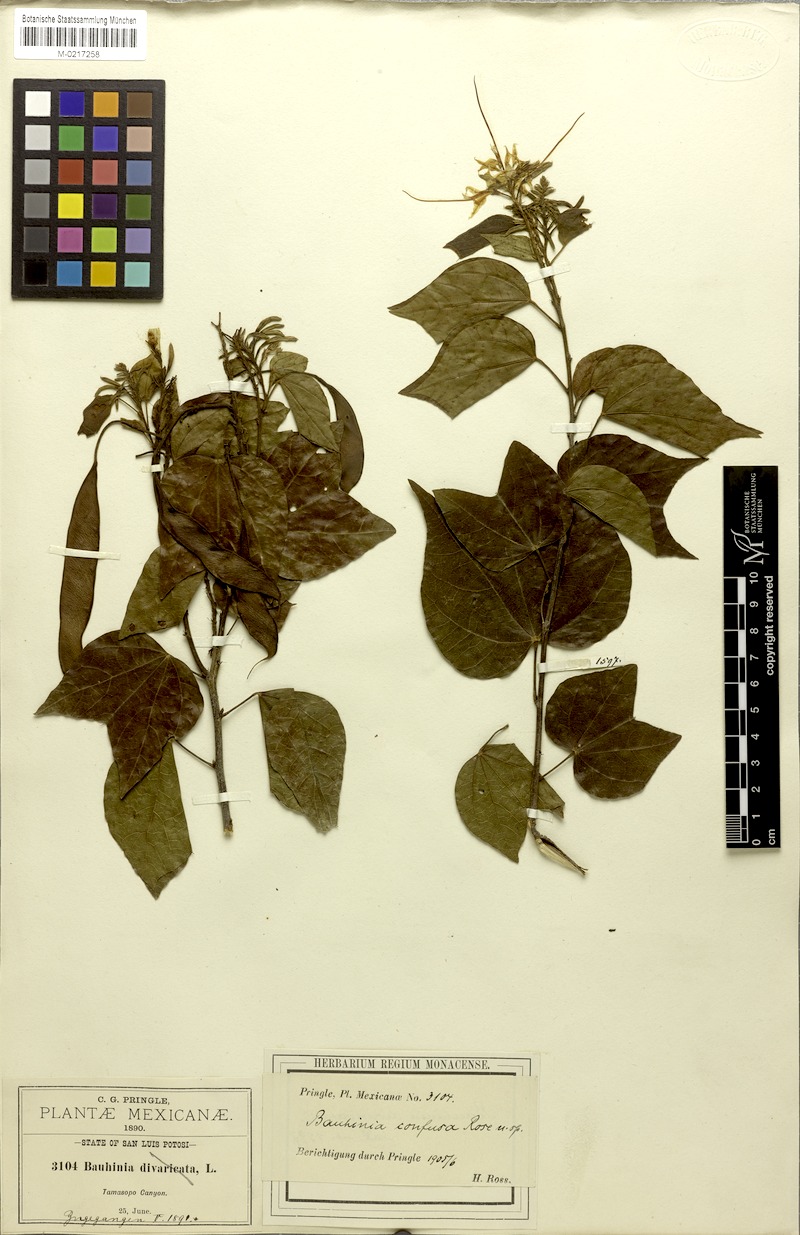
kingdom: Plantae
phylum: Tracheophyta
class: Magnoliopsida
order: Fabales
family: Fabaceae
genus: Bauhinia
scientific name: Bauhinia divaricata
